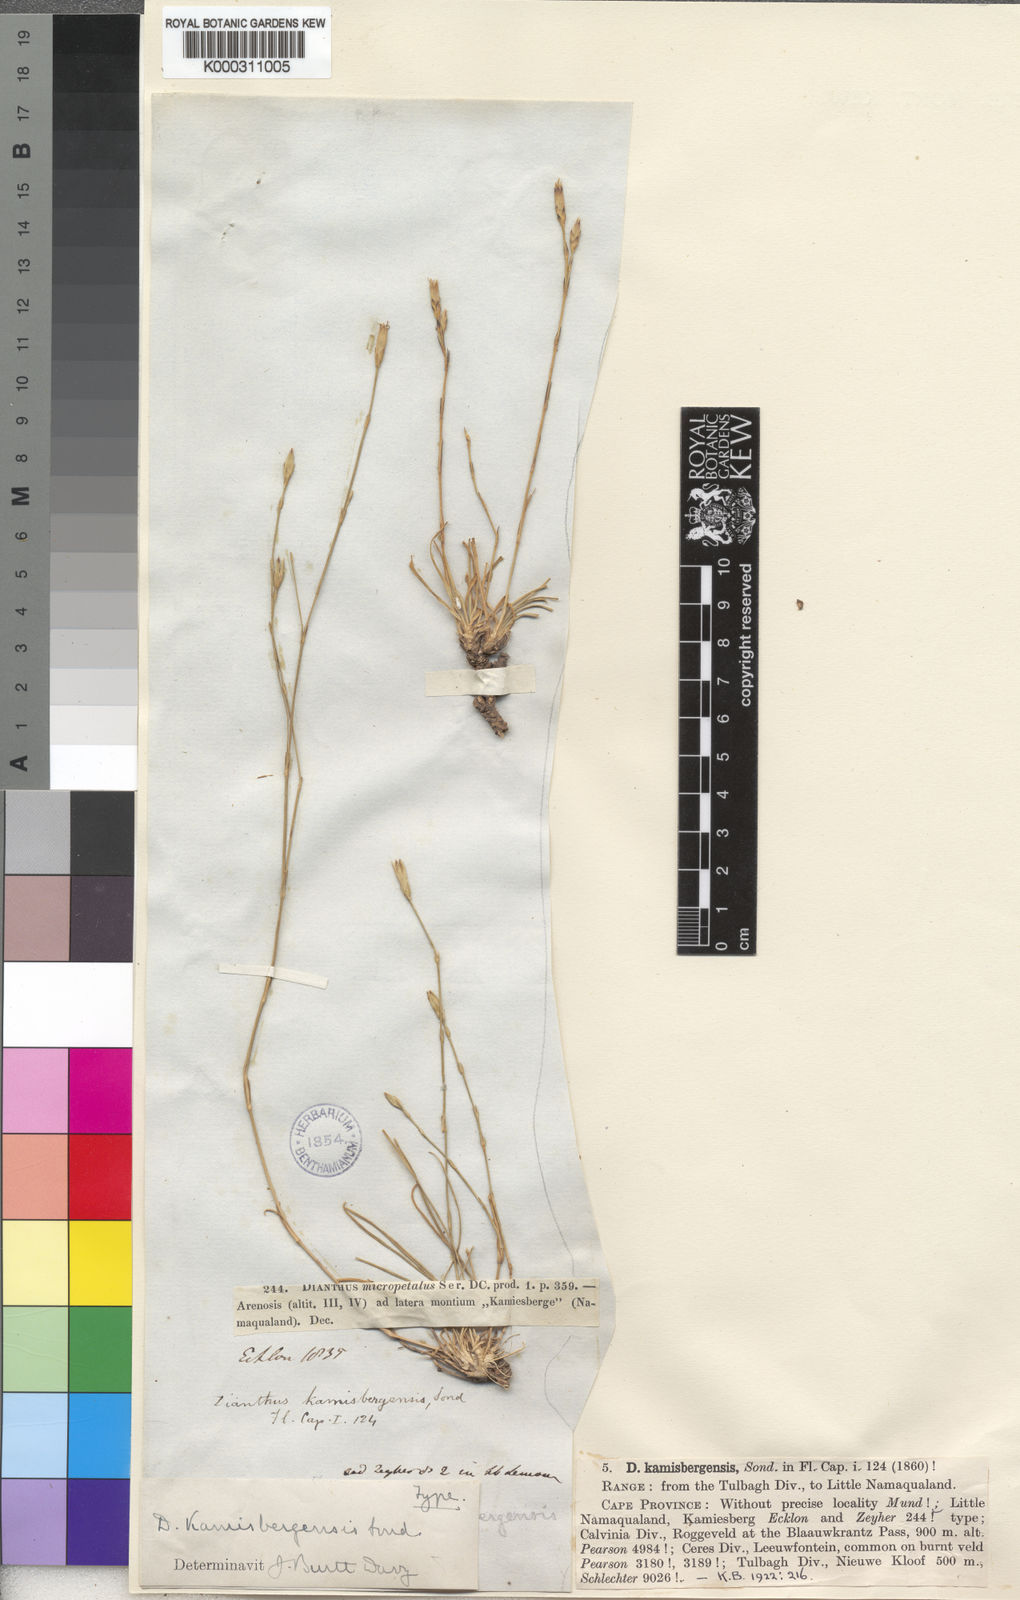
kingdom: Plantae
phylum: Tracheophyta
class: Magnoliopsida
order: Caryophyllales
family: Caryophyllaceae
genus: Dianthus
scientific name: Dianthus micropetalus
